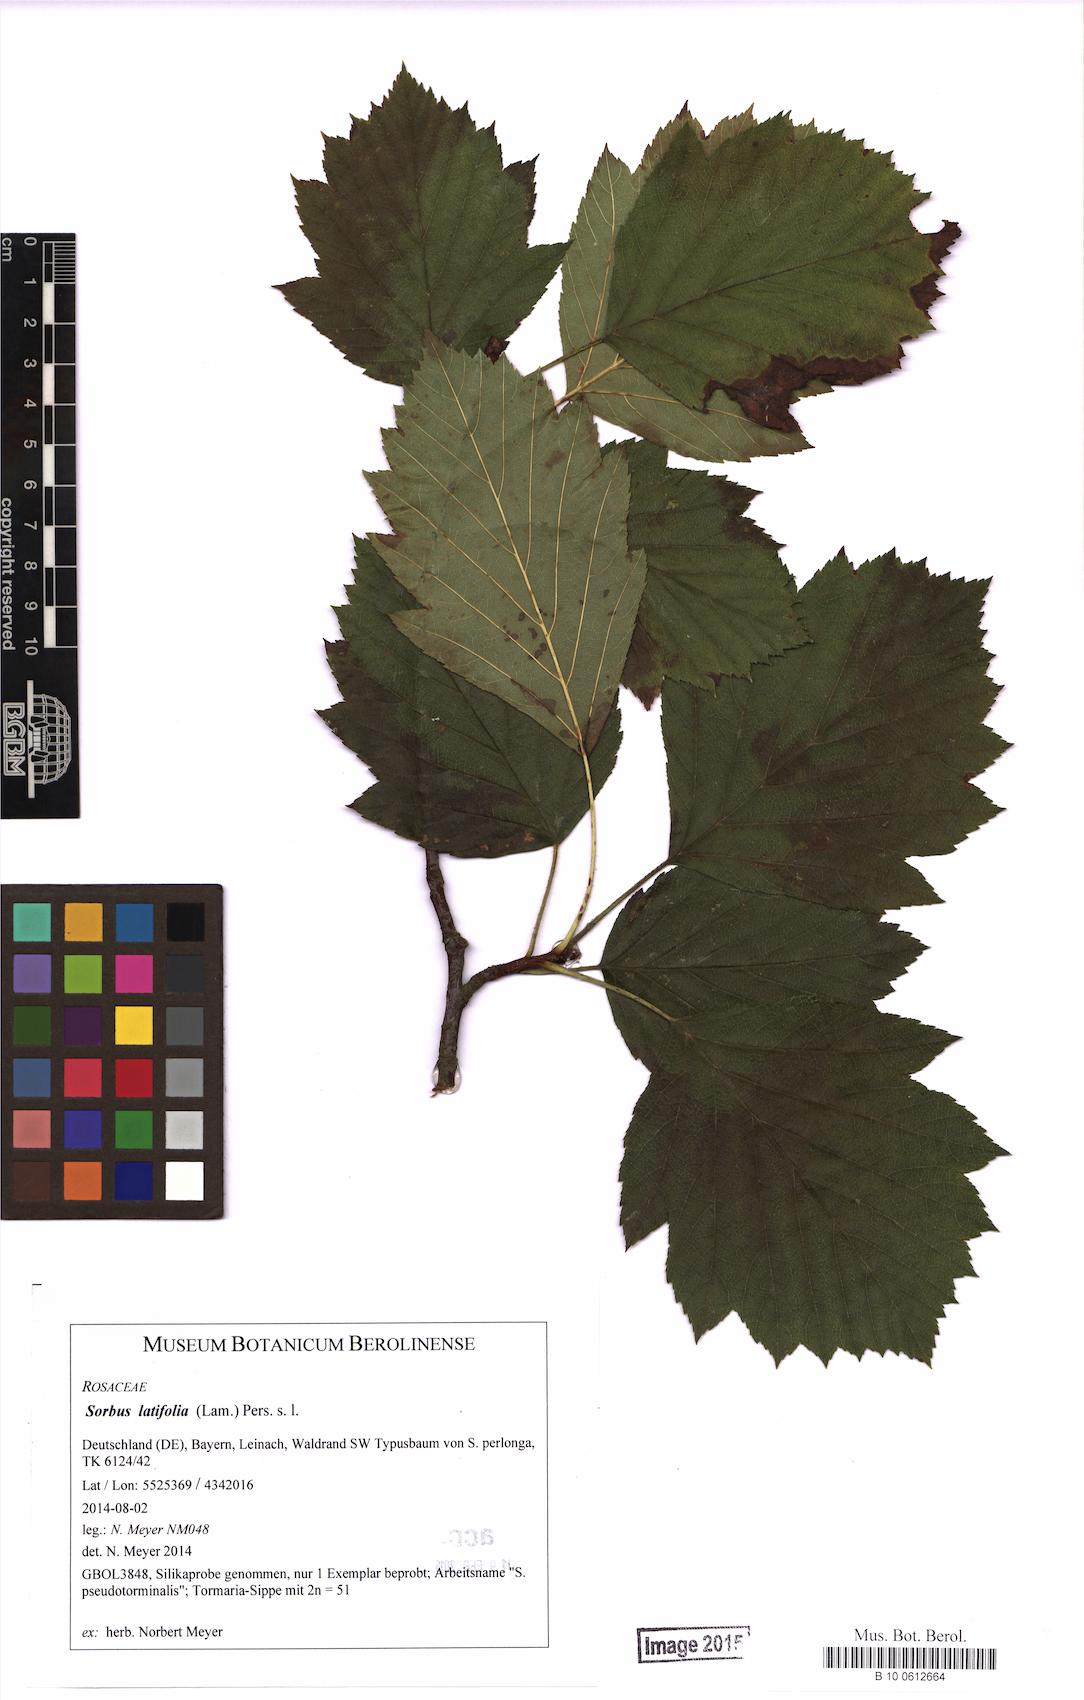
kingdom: Plantae
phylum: Tracheophyta
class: Magnoliopsida
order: Rosales
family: Rosaceae
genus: Karpatiosorbus
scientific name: Karpatiosorbus latifolia
